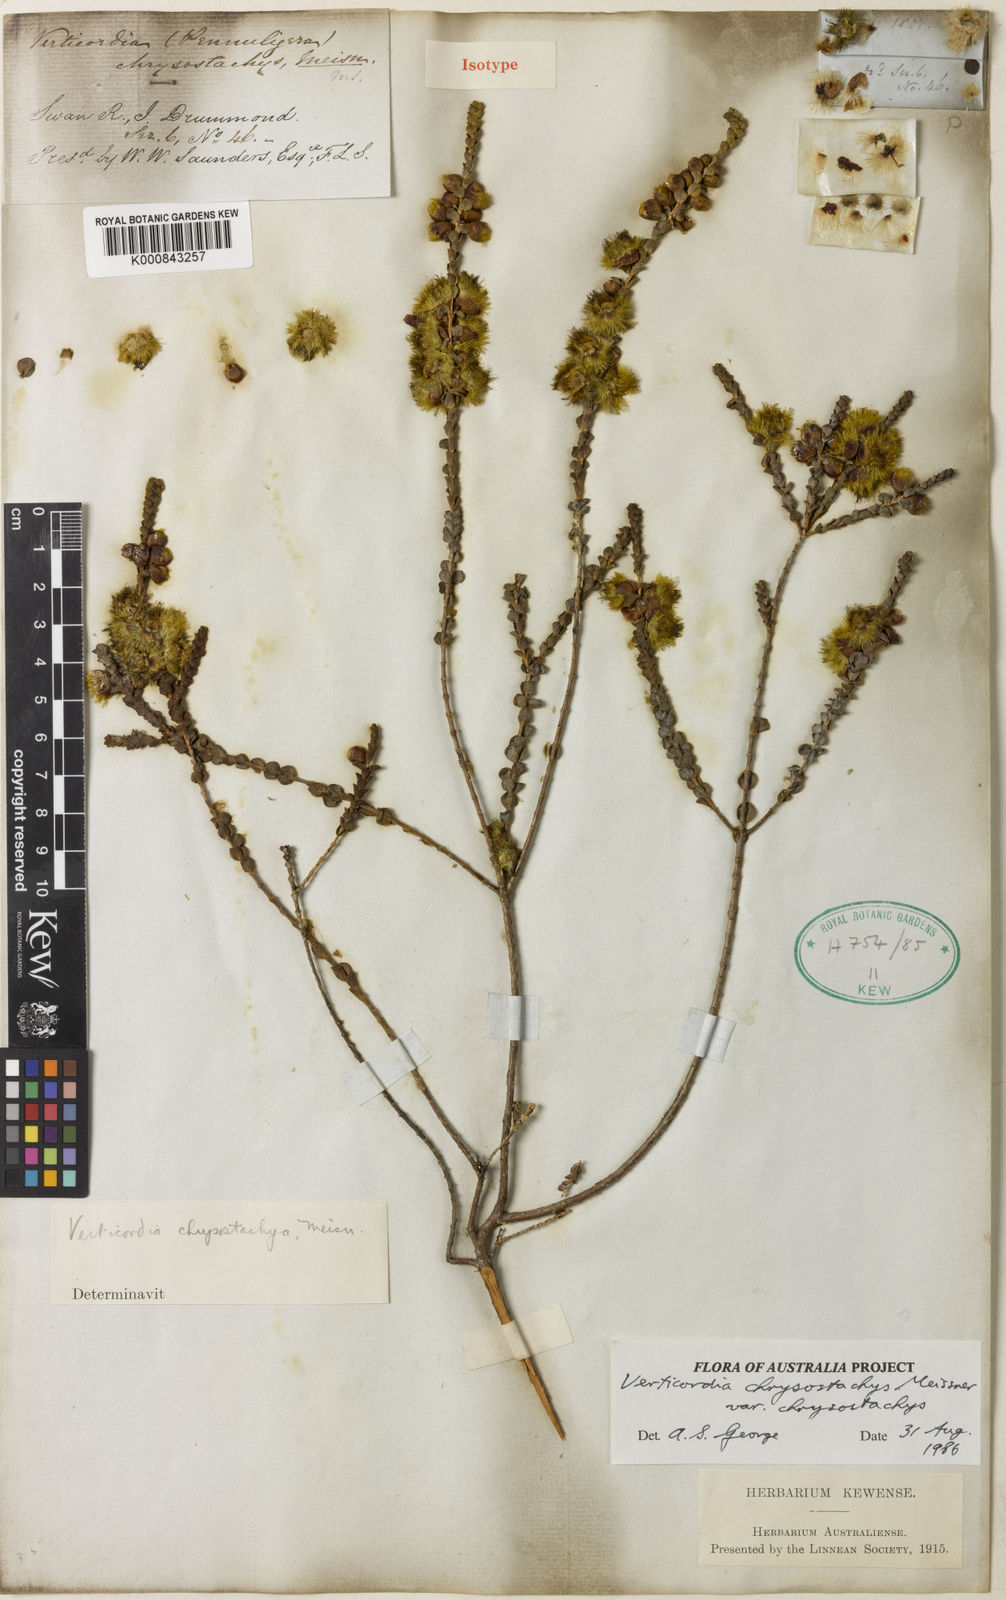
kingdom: Plantae
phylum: Tracheophyta
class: Magnoliopsida
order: Myrtales
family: Myrtaceae
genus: Verticordia
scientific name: Verticordia chrysostachys
